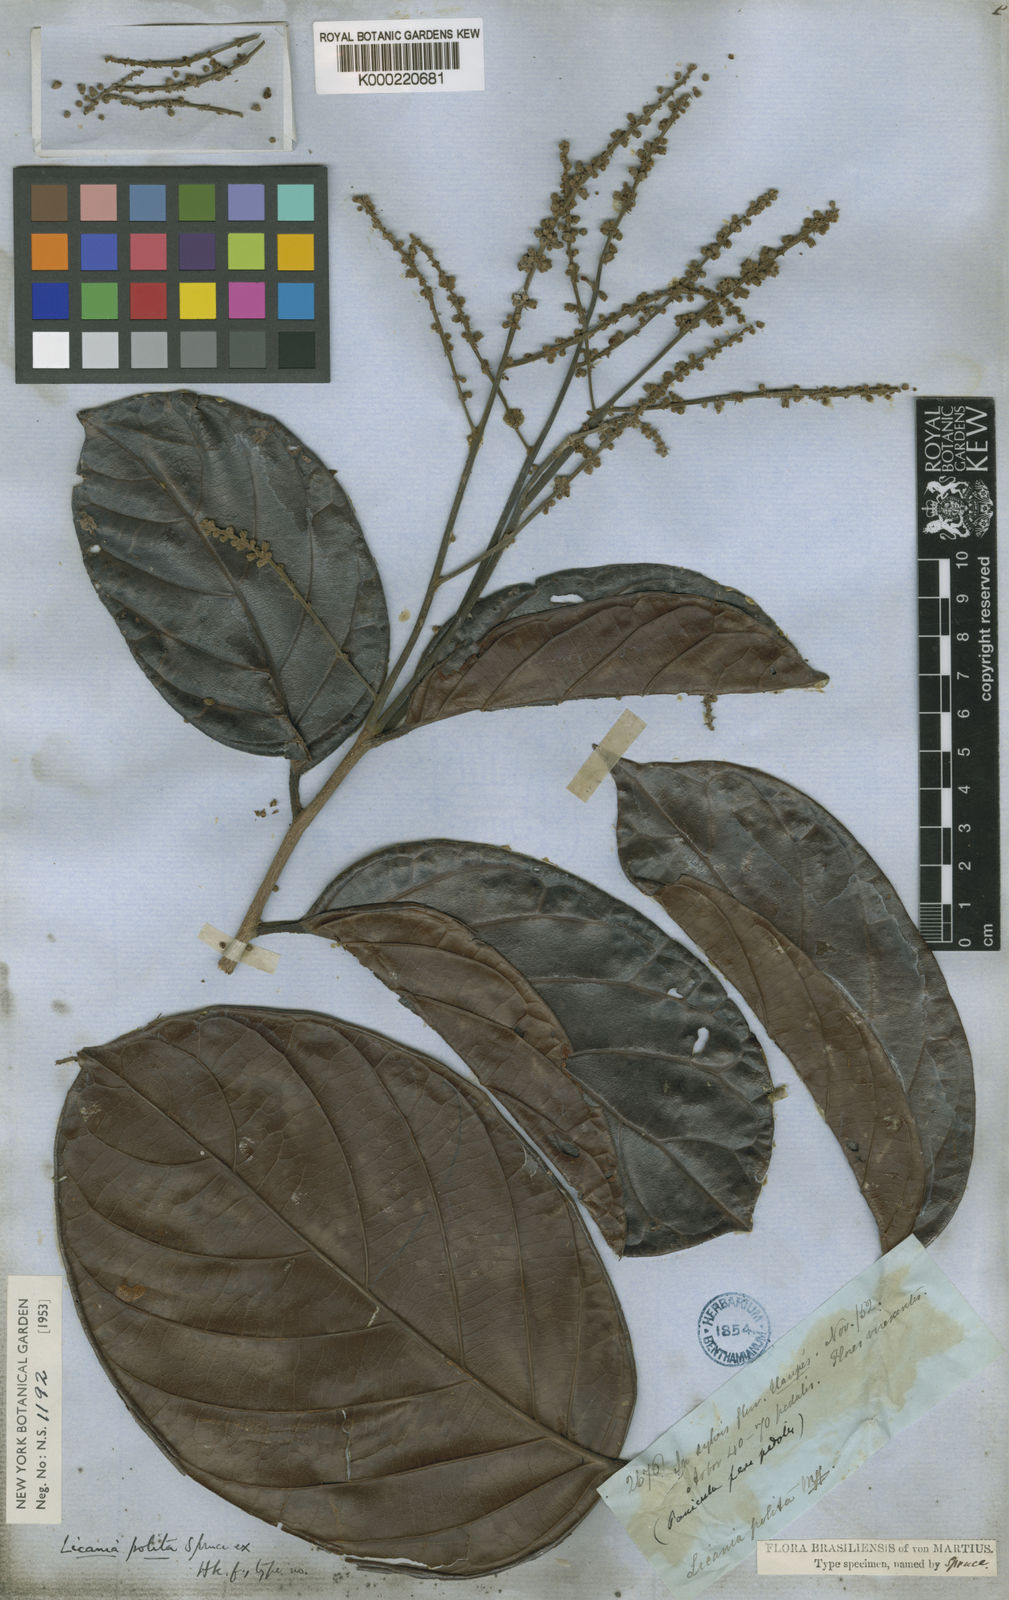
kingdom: Plantae
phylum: Tracheophyta
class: Magnoliopsida
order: Malpighiales
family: Chrysobalanaceae
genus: Licania
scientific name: Licania polita
